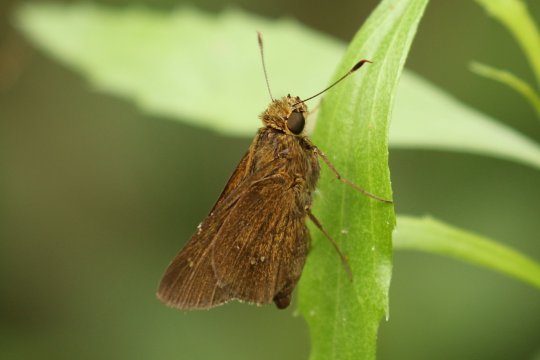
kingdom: Animalia
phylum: Arthropoda
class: Insecta
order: Lepidoptera
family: Hesperiidae
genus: Decinea
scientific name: Decinea percosius
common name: Double-dotted Skipper
